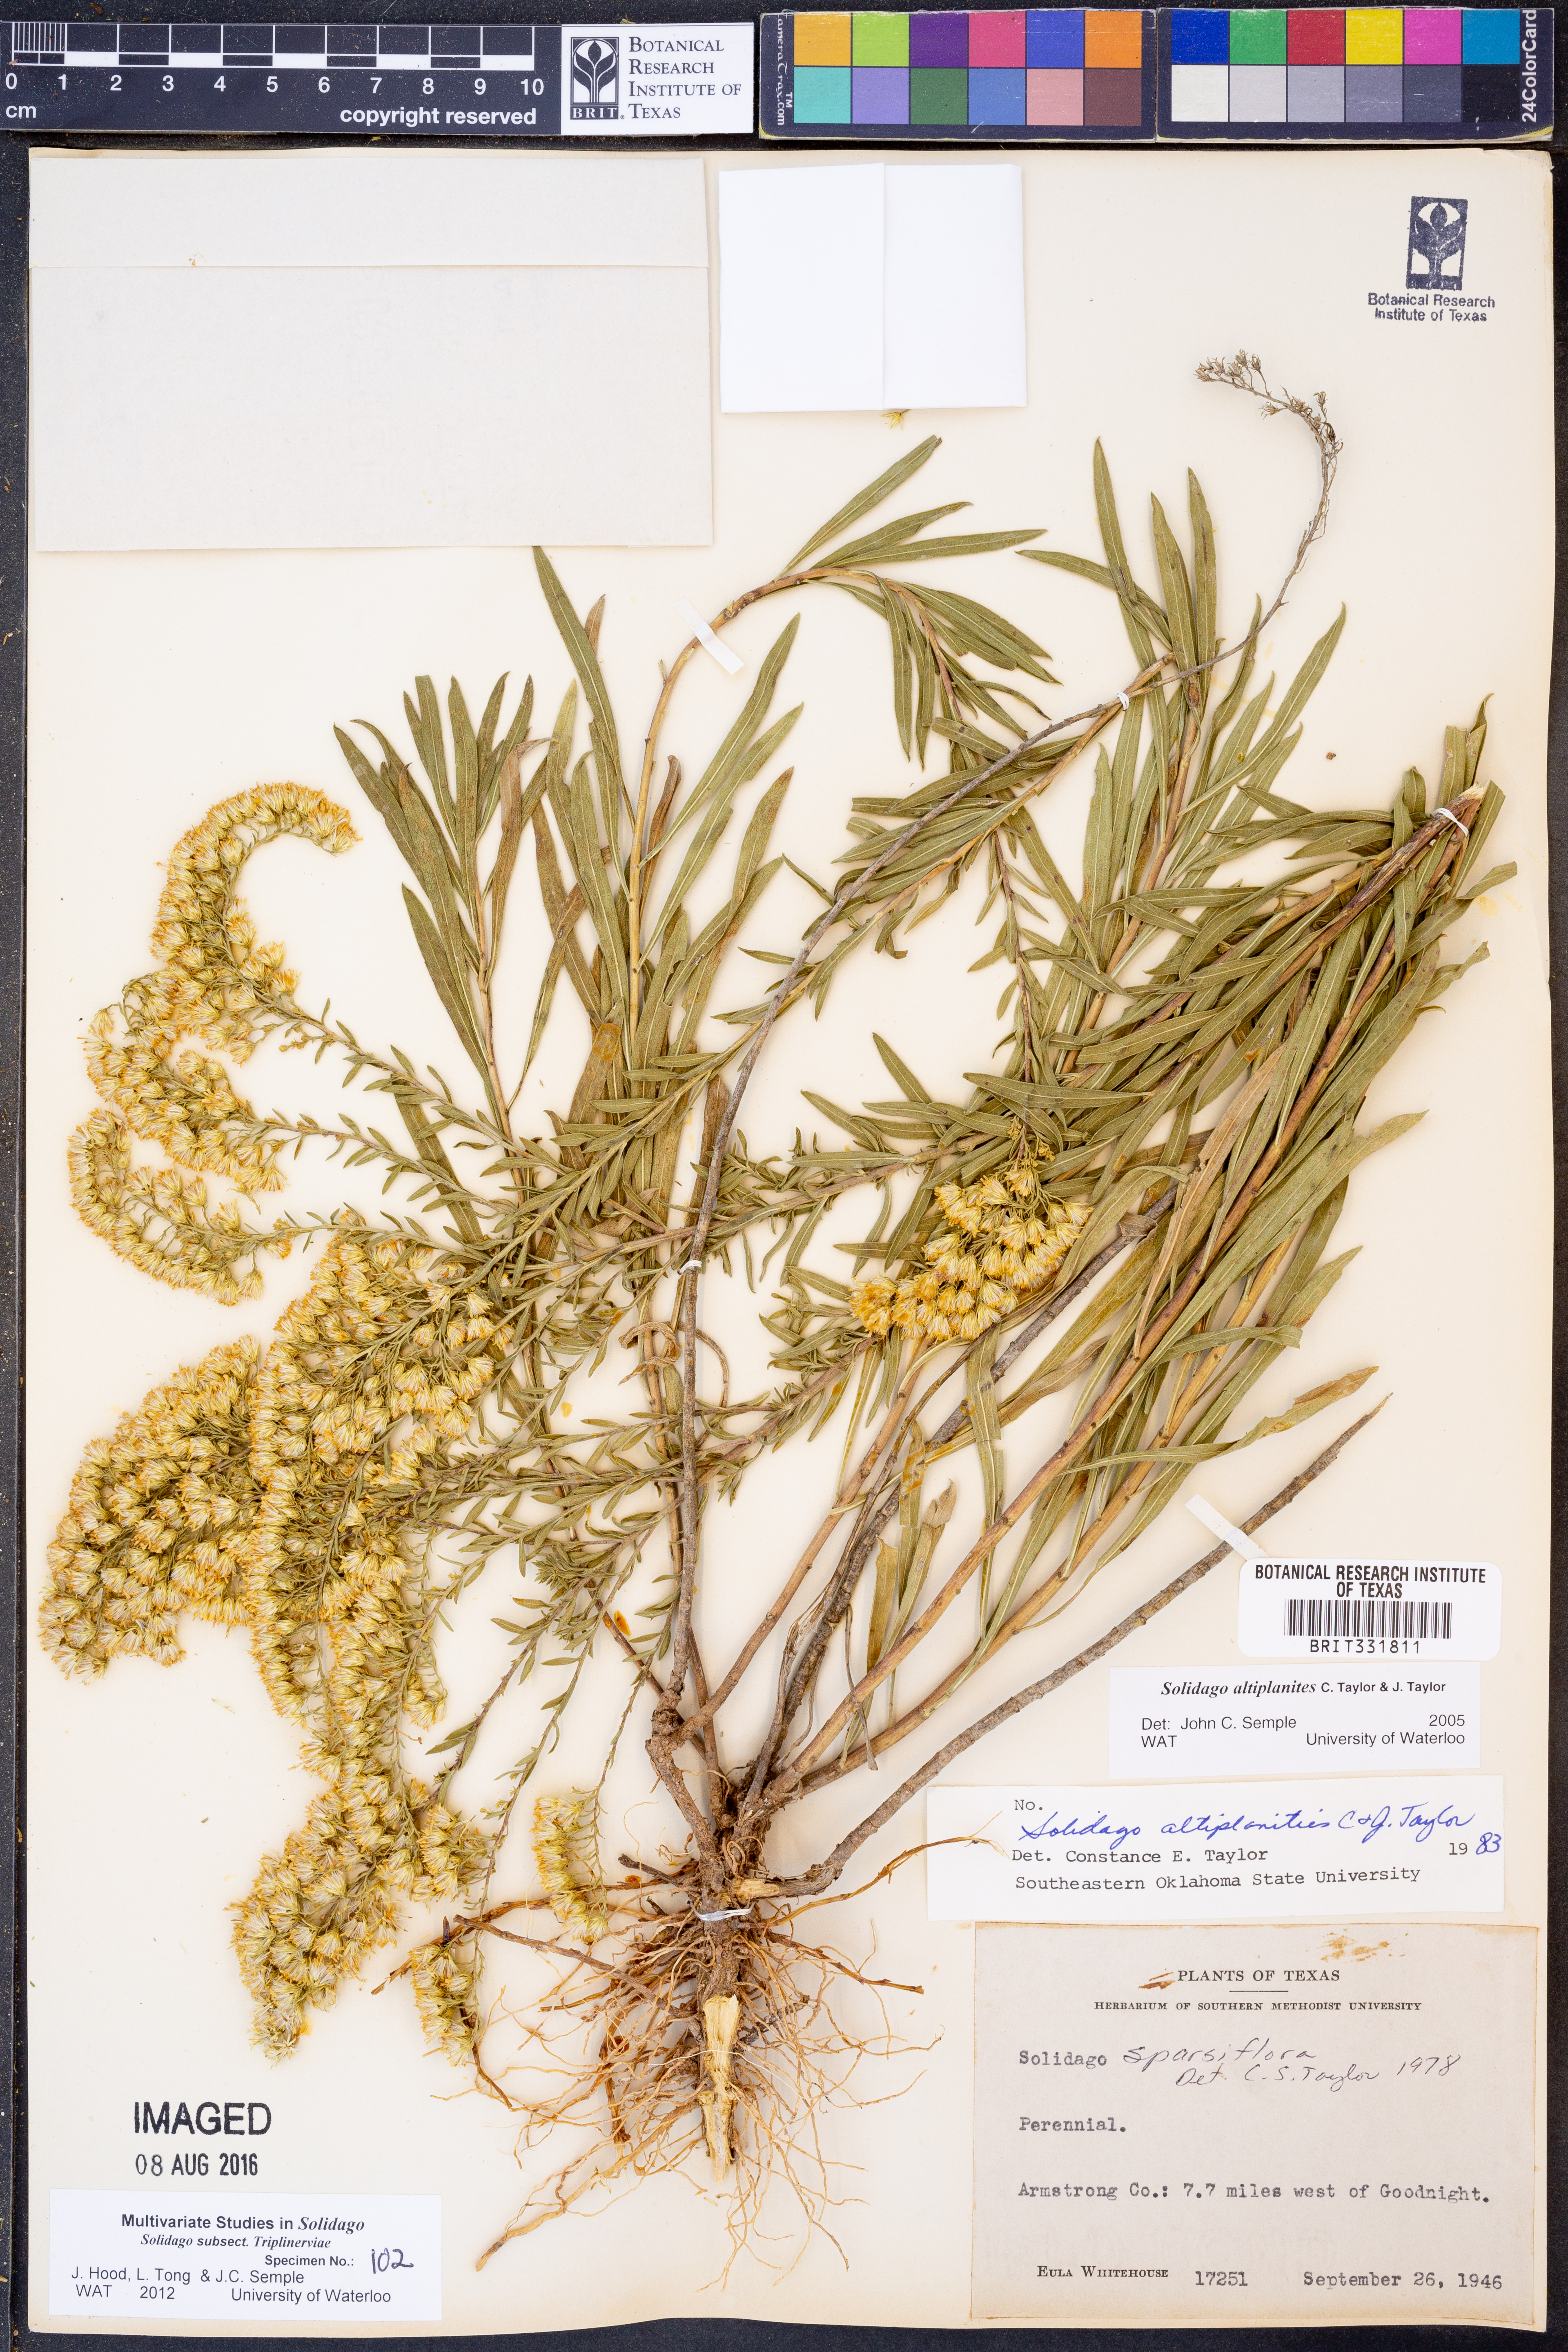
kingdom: Plantae
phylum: Tracheophyta
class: Magnoliopsida
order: Asterales
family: Asteraceae
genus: Solidago
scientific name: Solidago altiplanities
